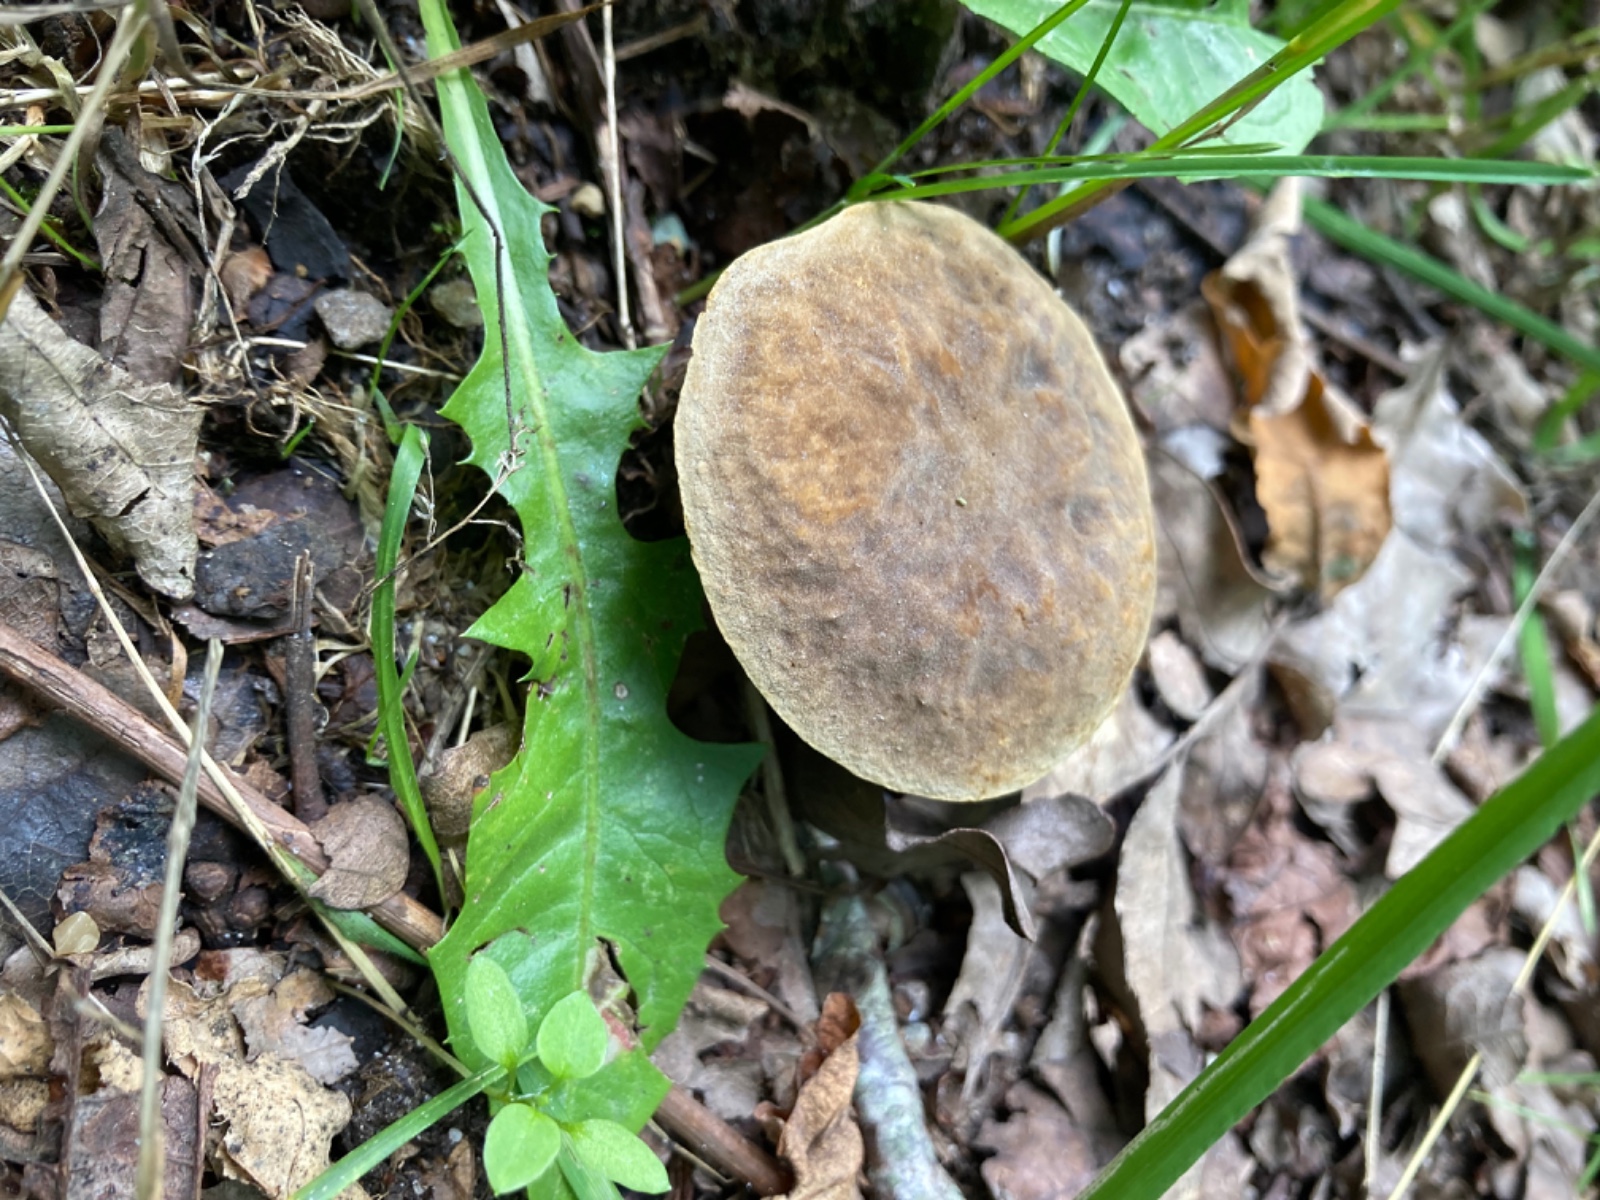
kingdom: Fungi
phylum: Basidiomycota
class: Agaricomycetes
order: Boletales
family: Boletaceae
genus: Hortiboletus
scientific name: Hortiboletus engelii
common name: fersken-rørhat
